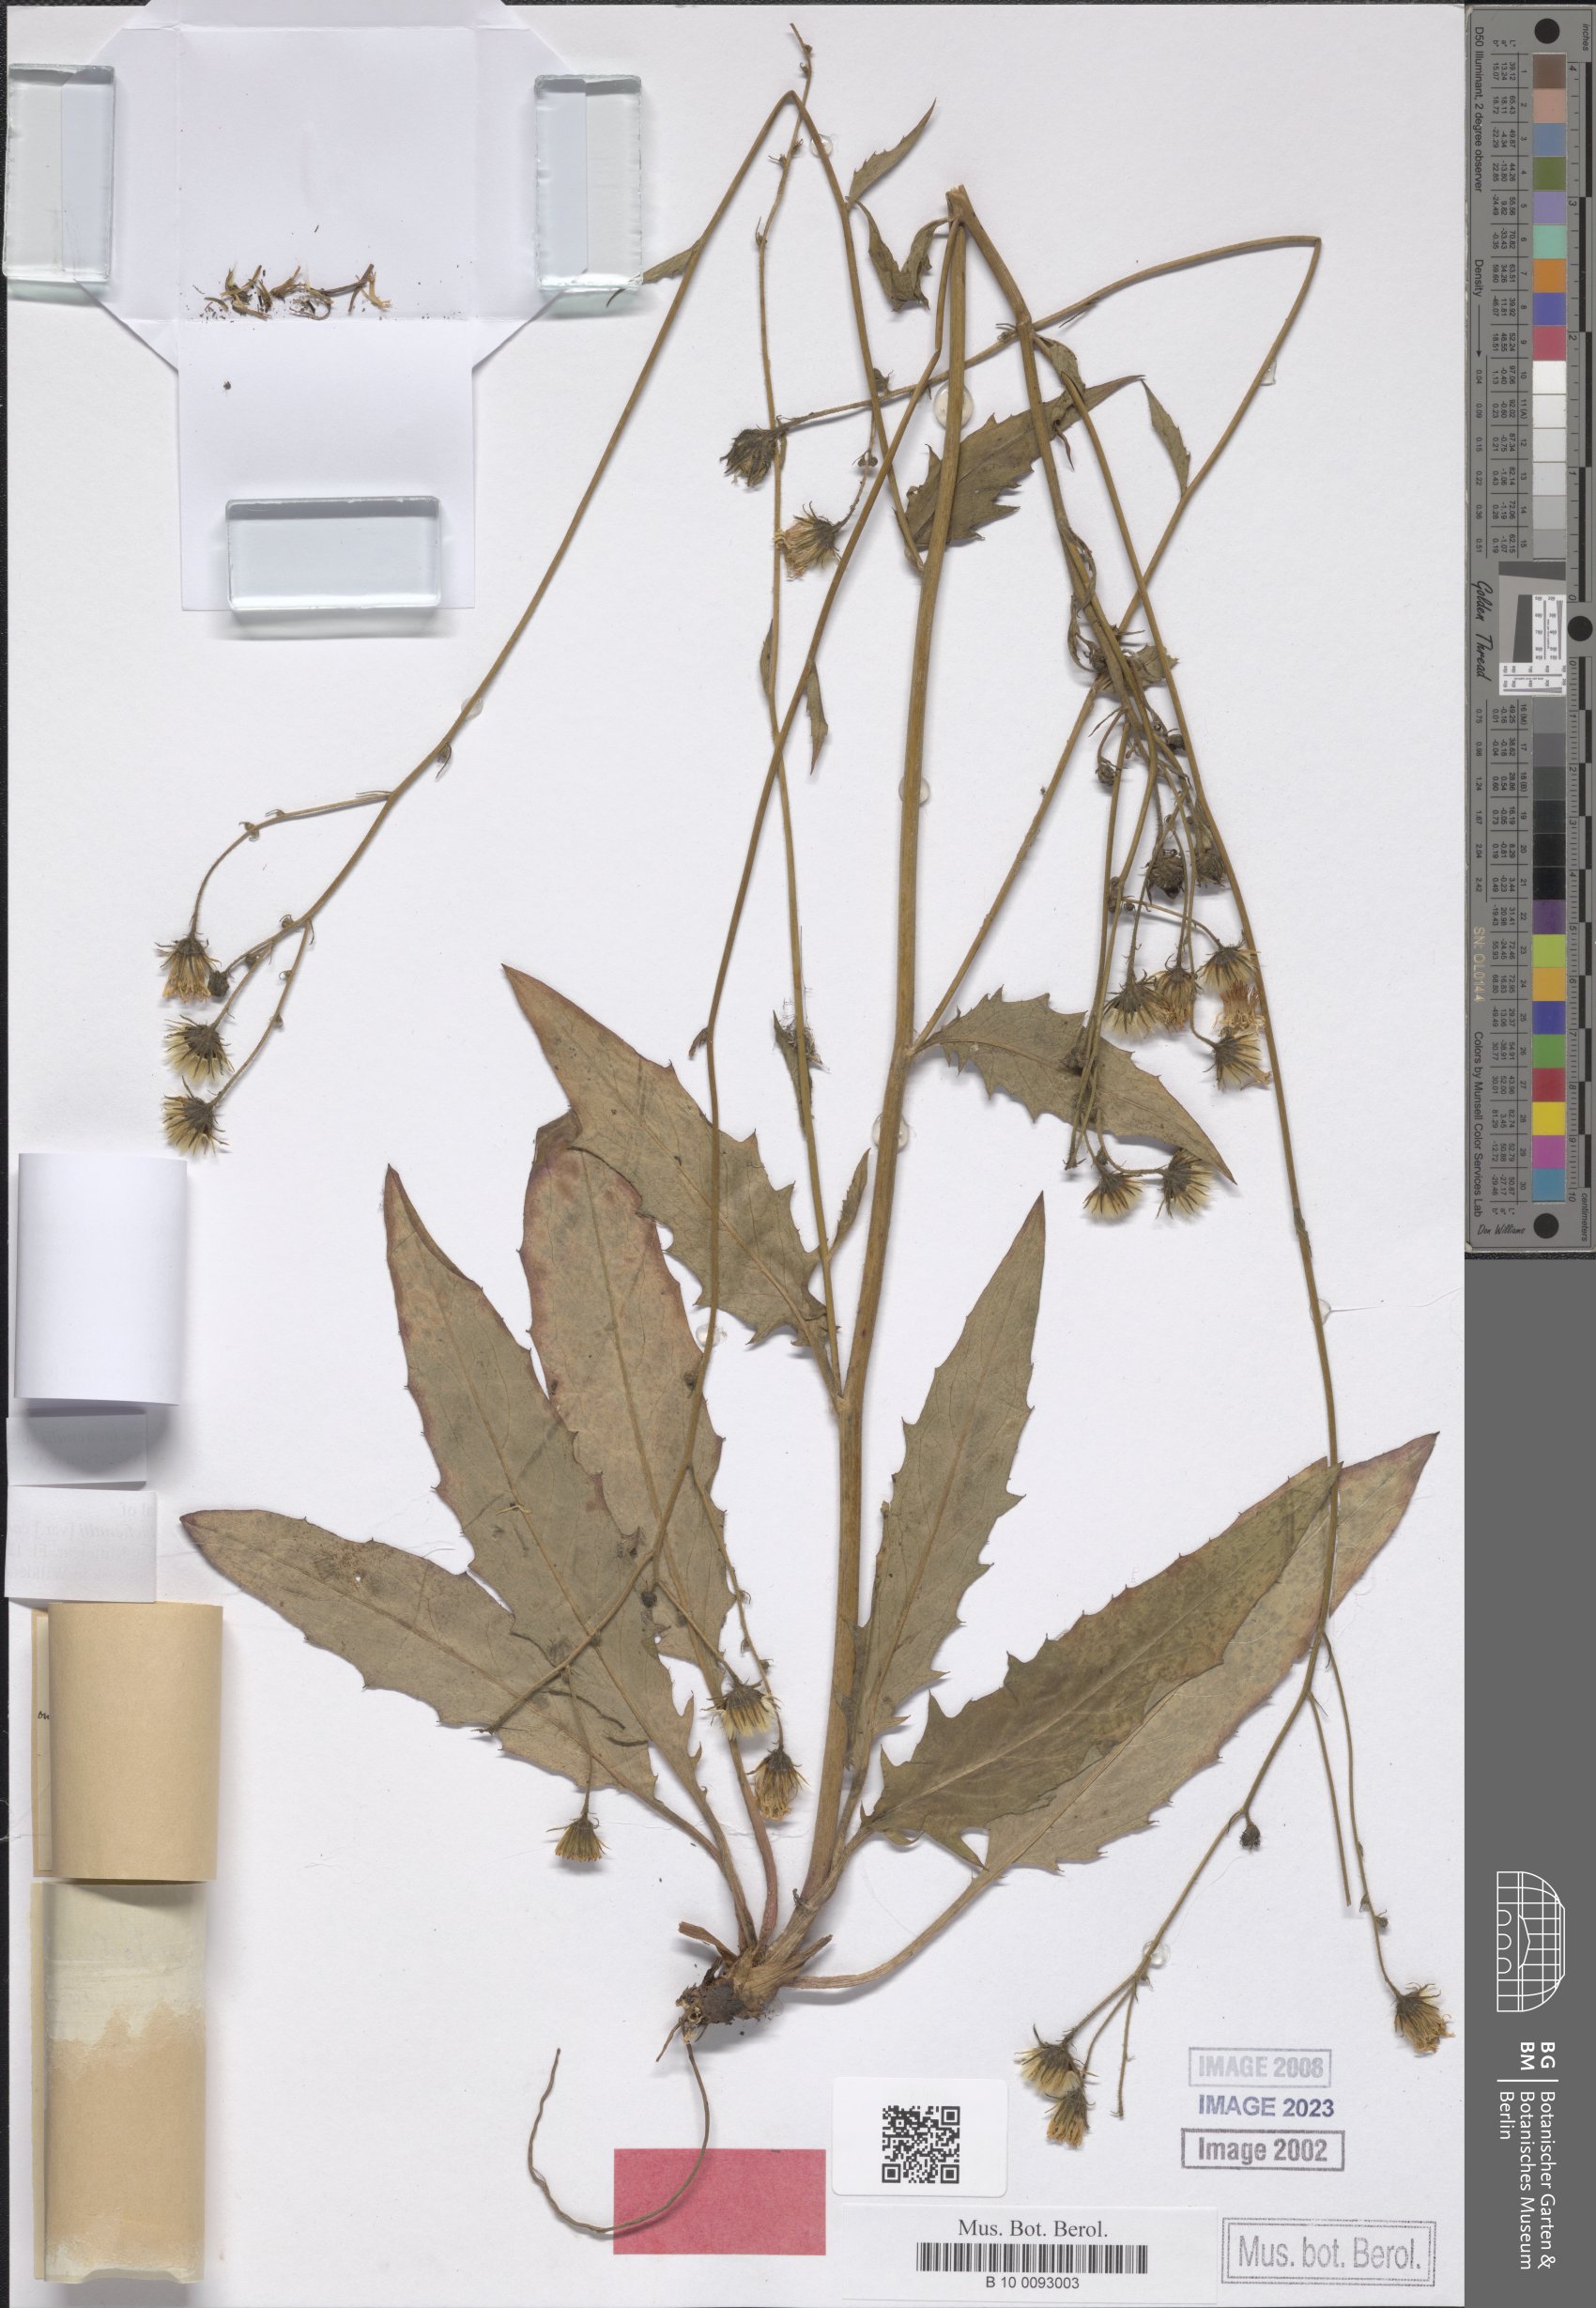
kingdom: Plantae
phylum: Tracheophyta
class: Magnoliopsida
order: Asterales
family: Asteraceae
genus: Hieracium
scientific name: Hieracium lachenalii
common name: Common hawkweed
